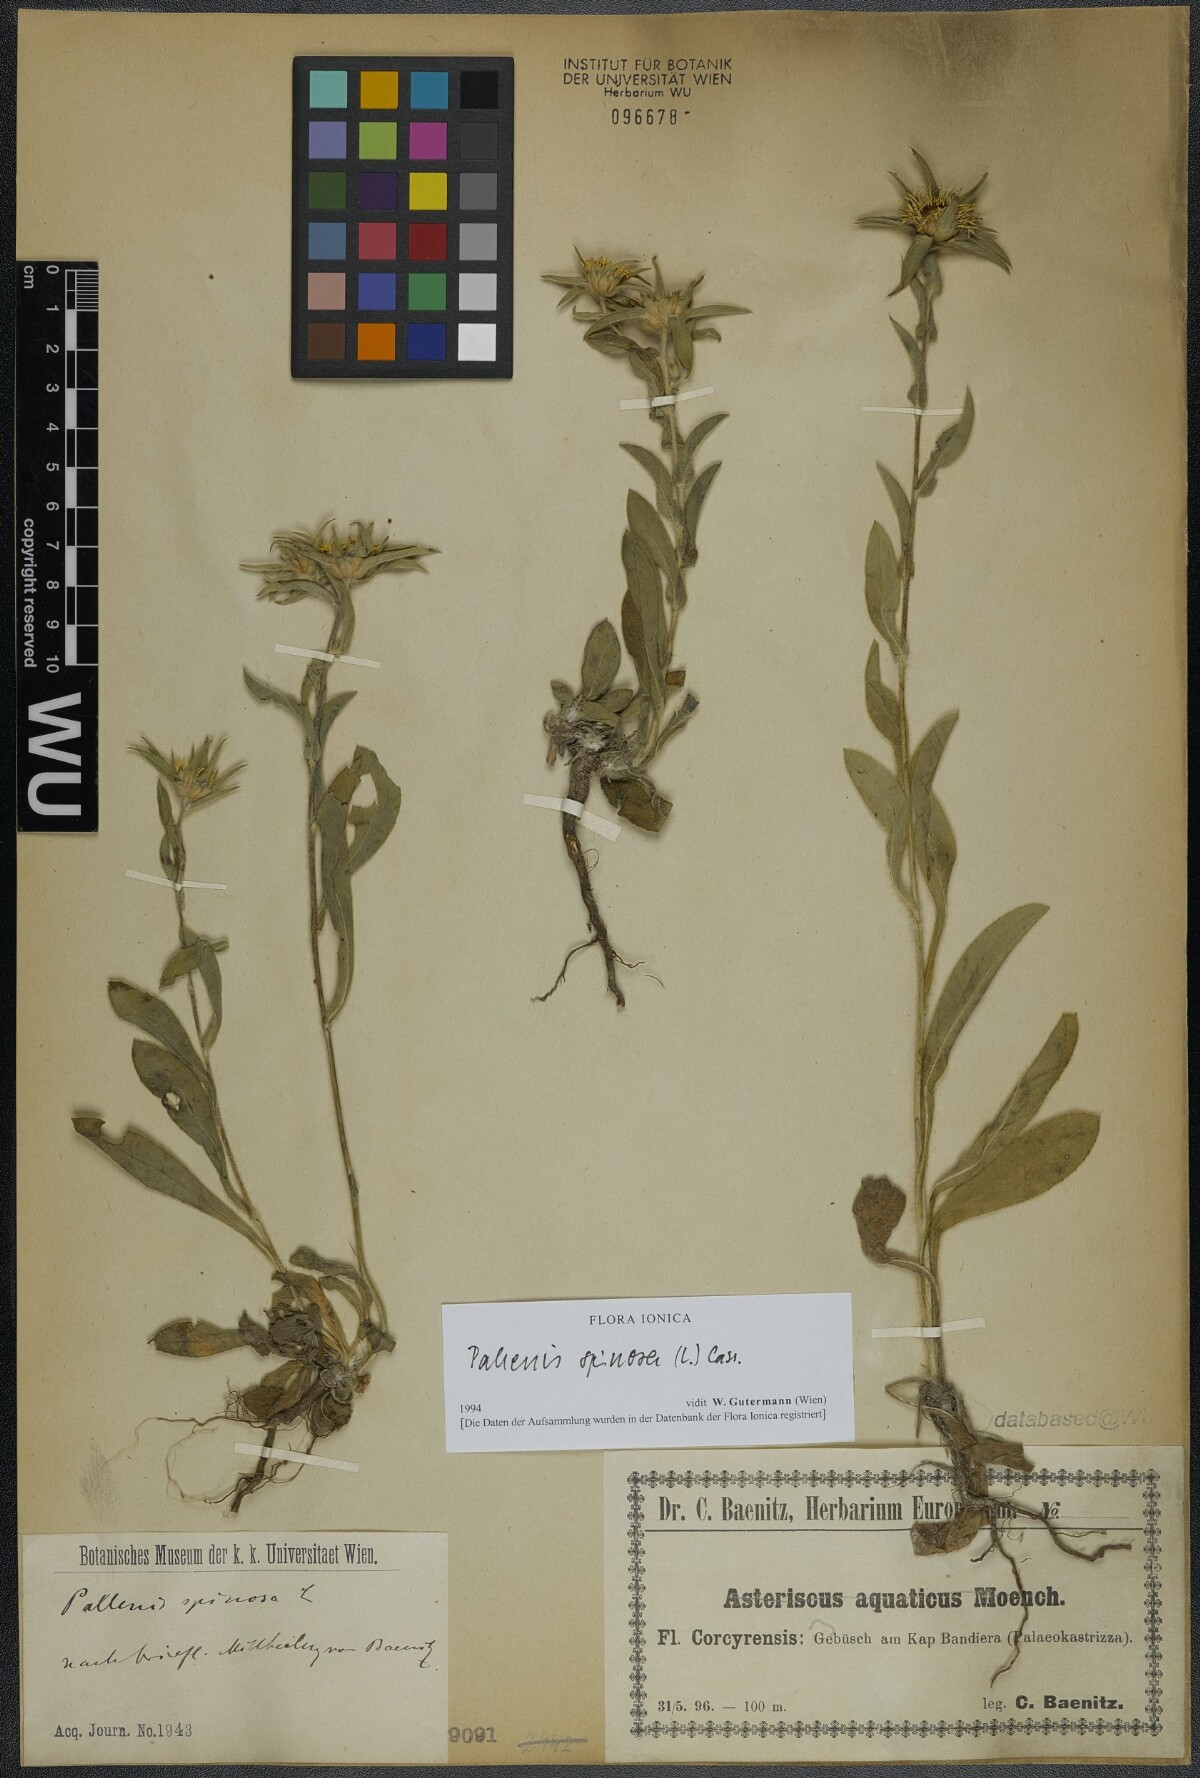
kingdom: Plantae
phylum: Tracheophyta
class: Magnoliopsida
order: Asterales
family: Asteraceae
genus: Pallenis
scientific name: Pallenis spinosa
